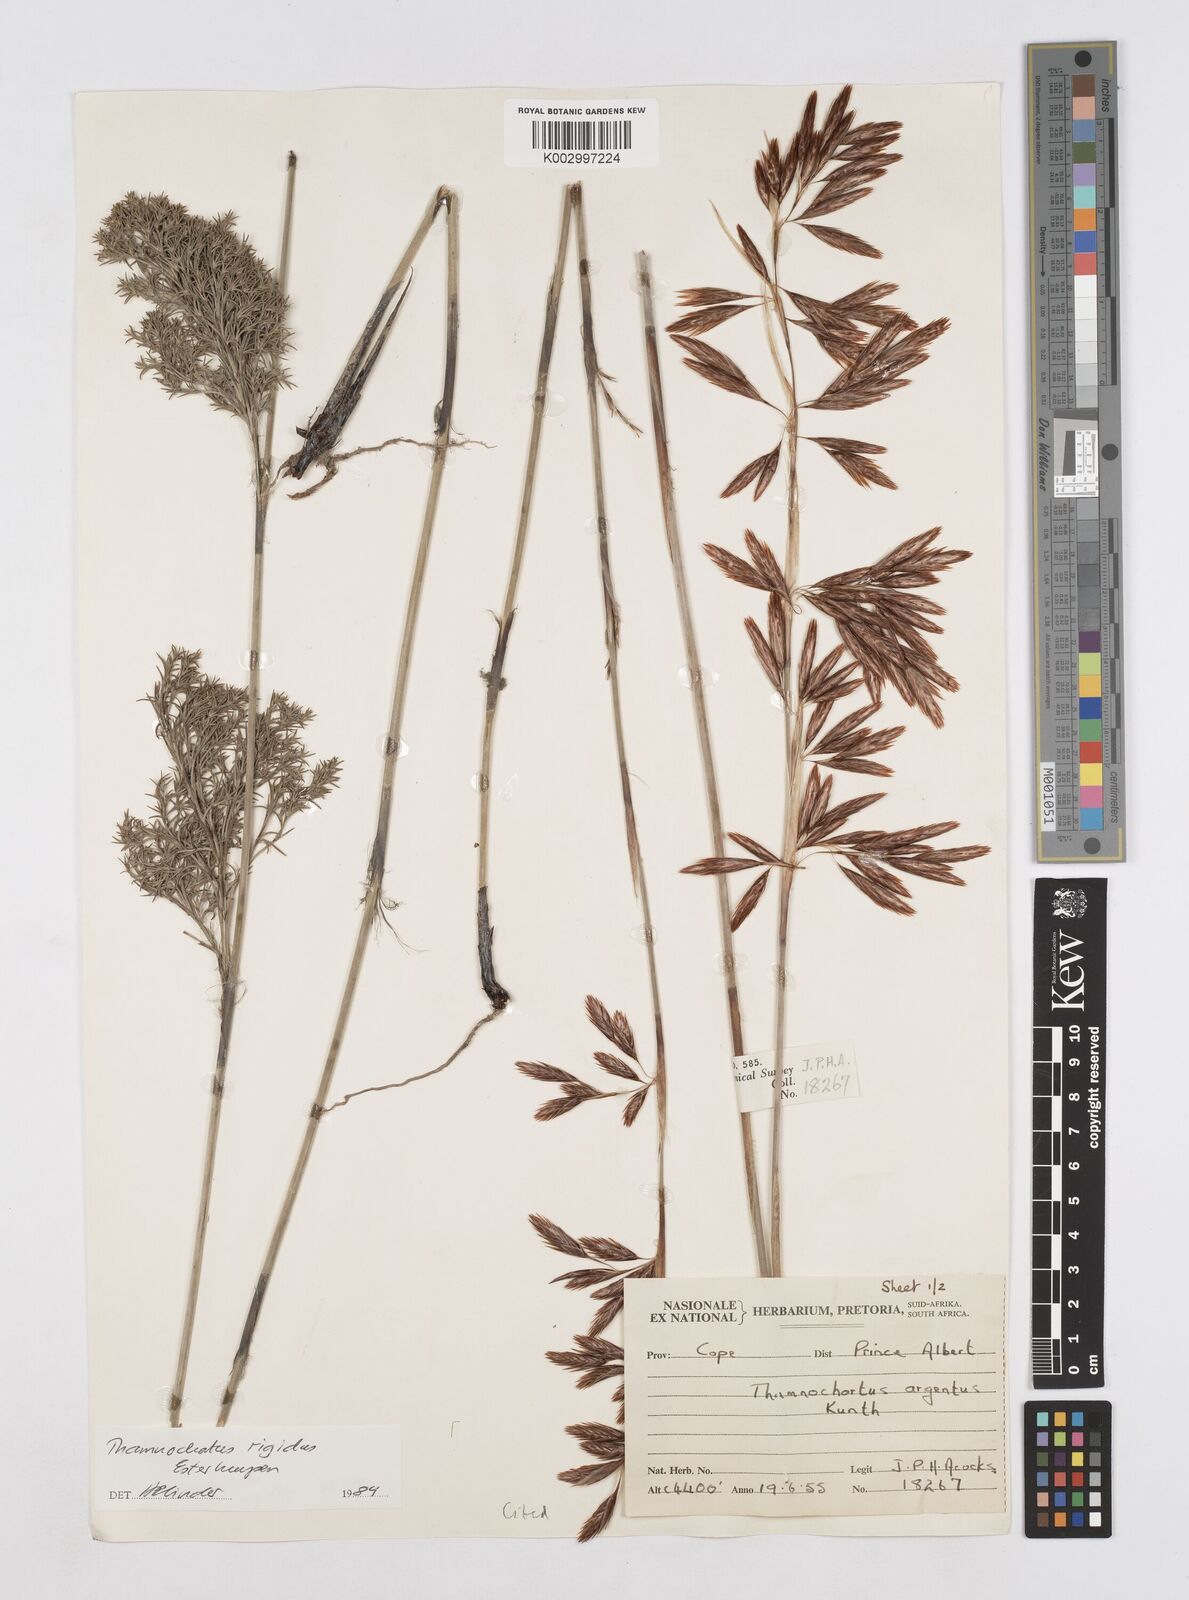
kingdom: Plantae
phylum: Tracheophyta
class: Liliopsida
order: Poales
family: Restionaceae
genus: Thamnochortus
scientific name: Thamnochortus rigidus
